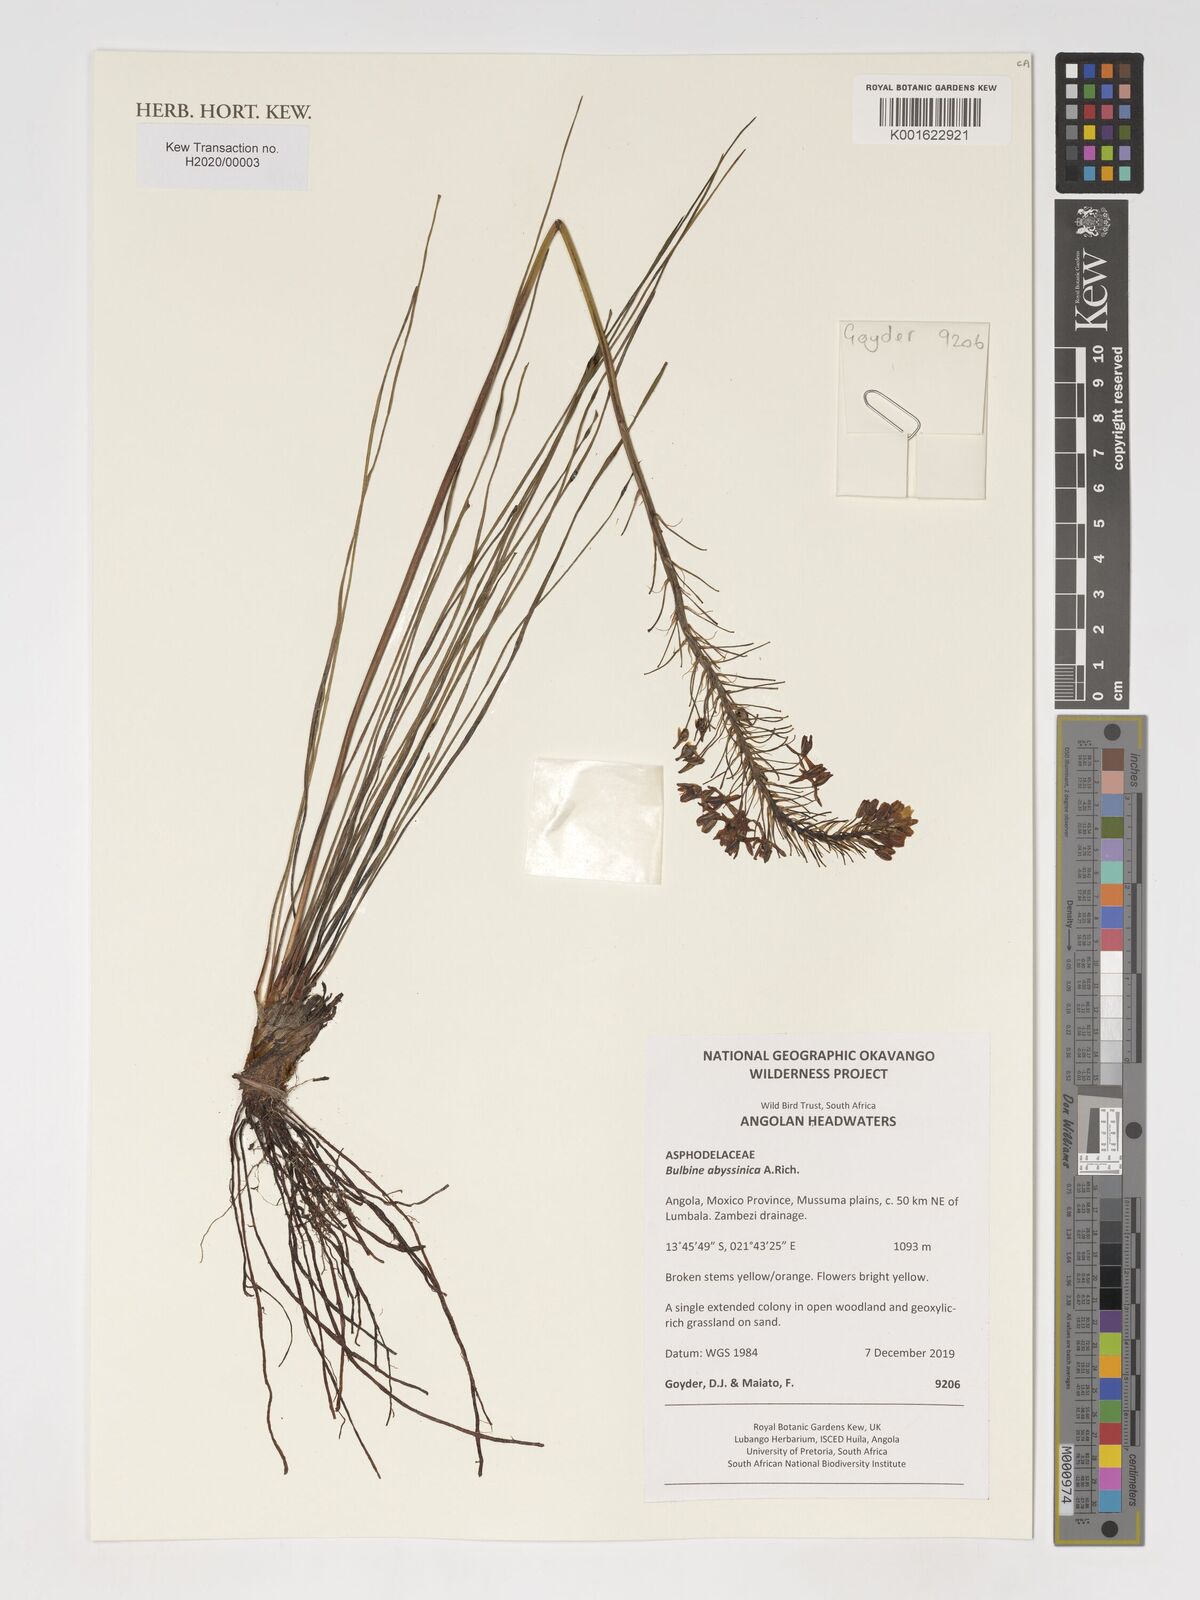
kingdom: Plantae
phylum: Tracheophyta
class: Liliopsida
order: Asparagales
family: Asphodelaceae
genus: Bulbine
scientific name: Bulbine abyssinica
